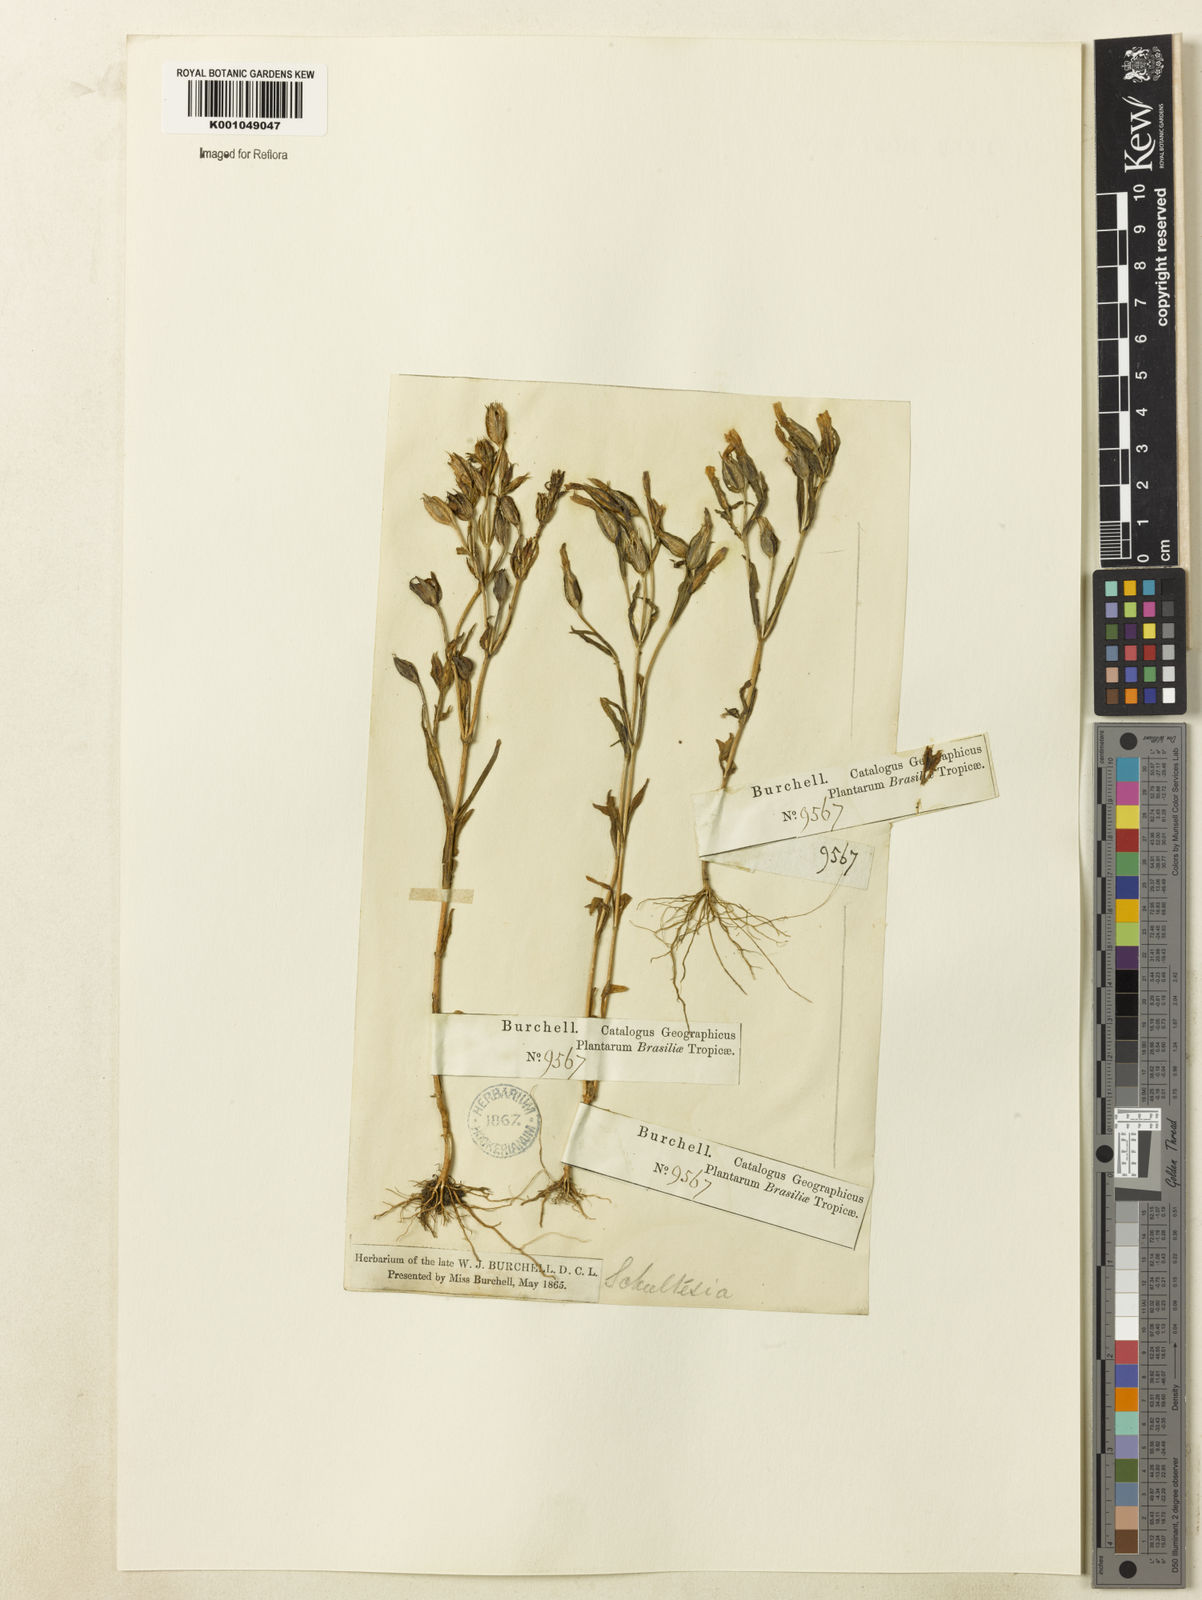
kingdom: Plantae
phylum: Tracheophyta
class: Magnoliopsida
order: Gentianales
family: Gentianaceae
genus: Schultesia
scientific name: Schultesia guianensis
